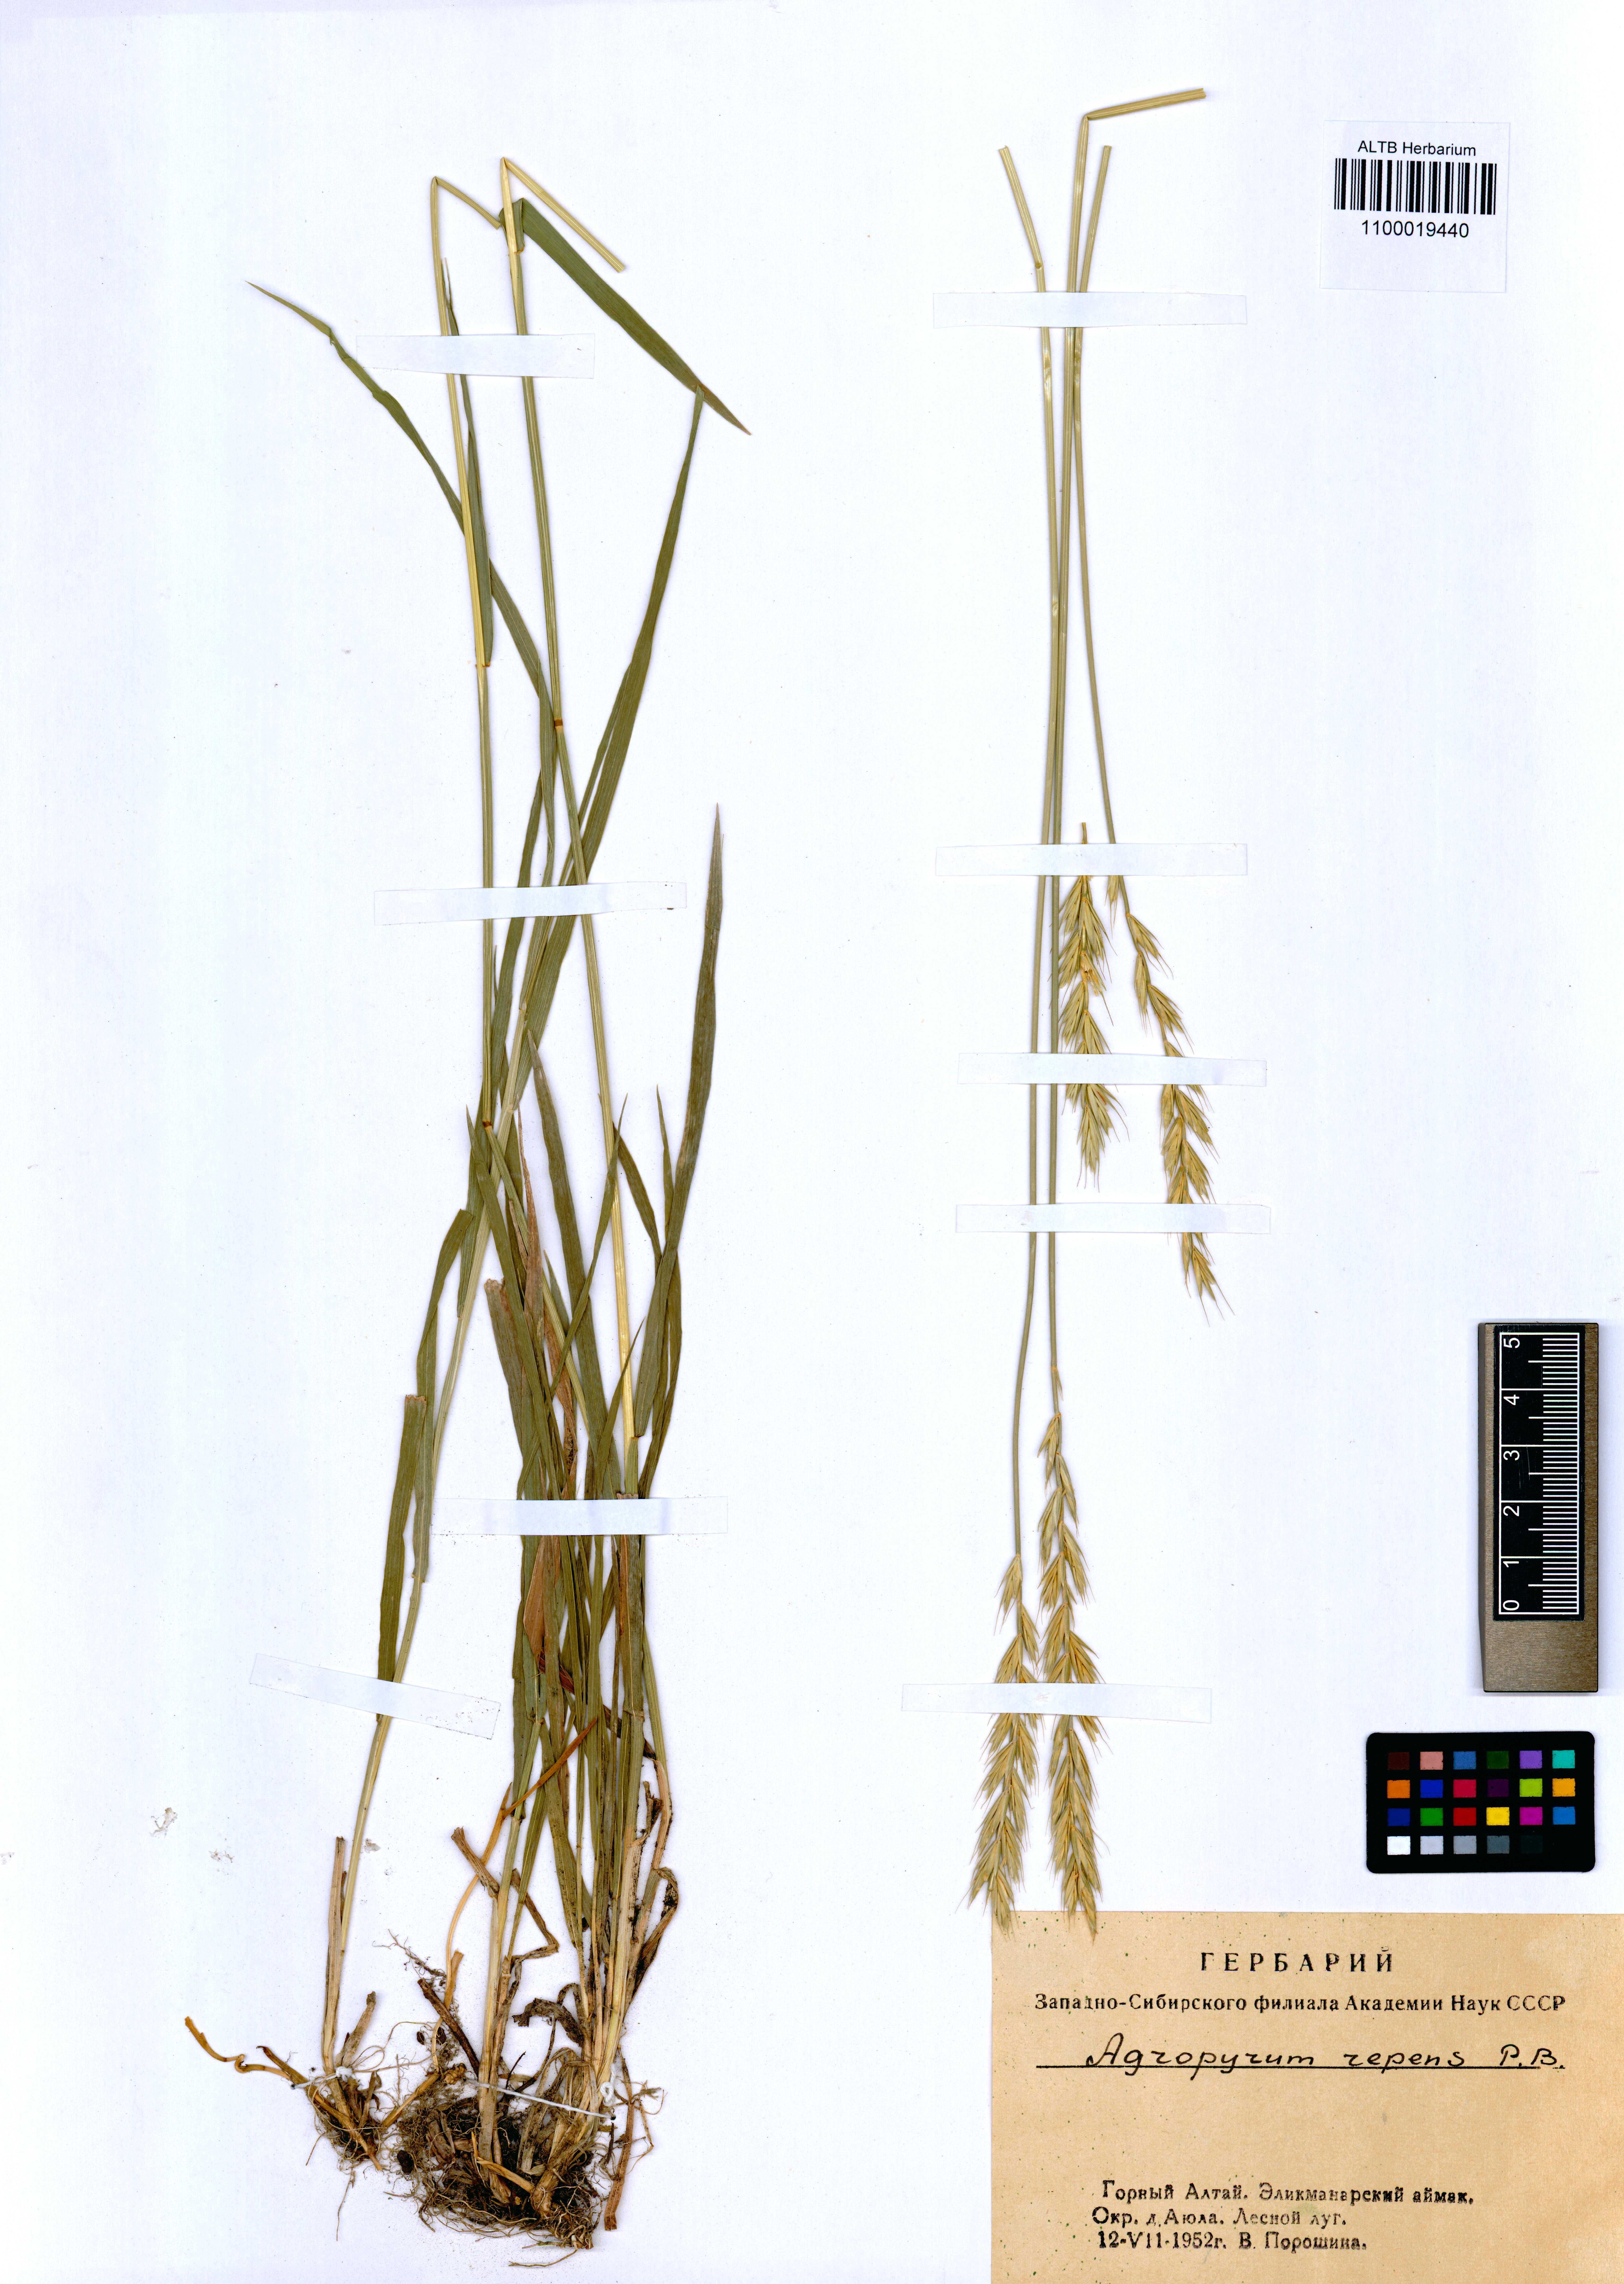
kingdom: Plantae
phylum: Tracheophyta
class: Liliopsida
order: Poales
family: Poaceae
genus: Elymus
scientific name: Elymus repens
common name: Quackgrass
